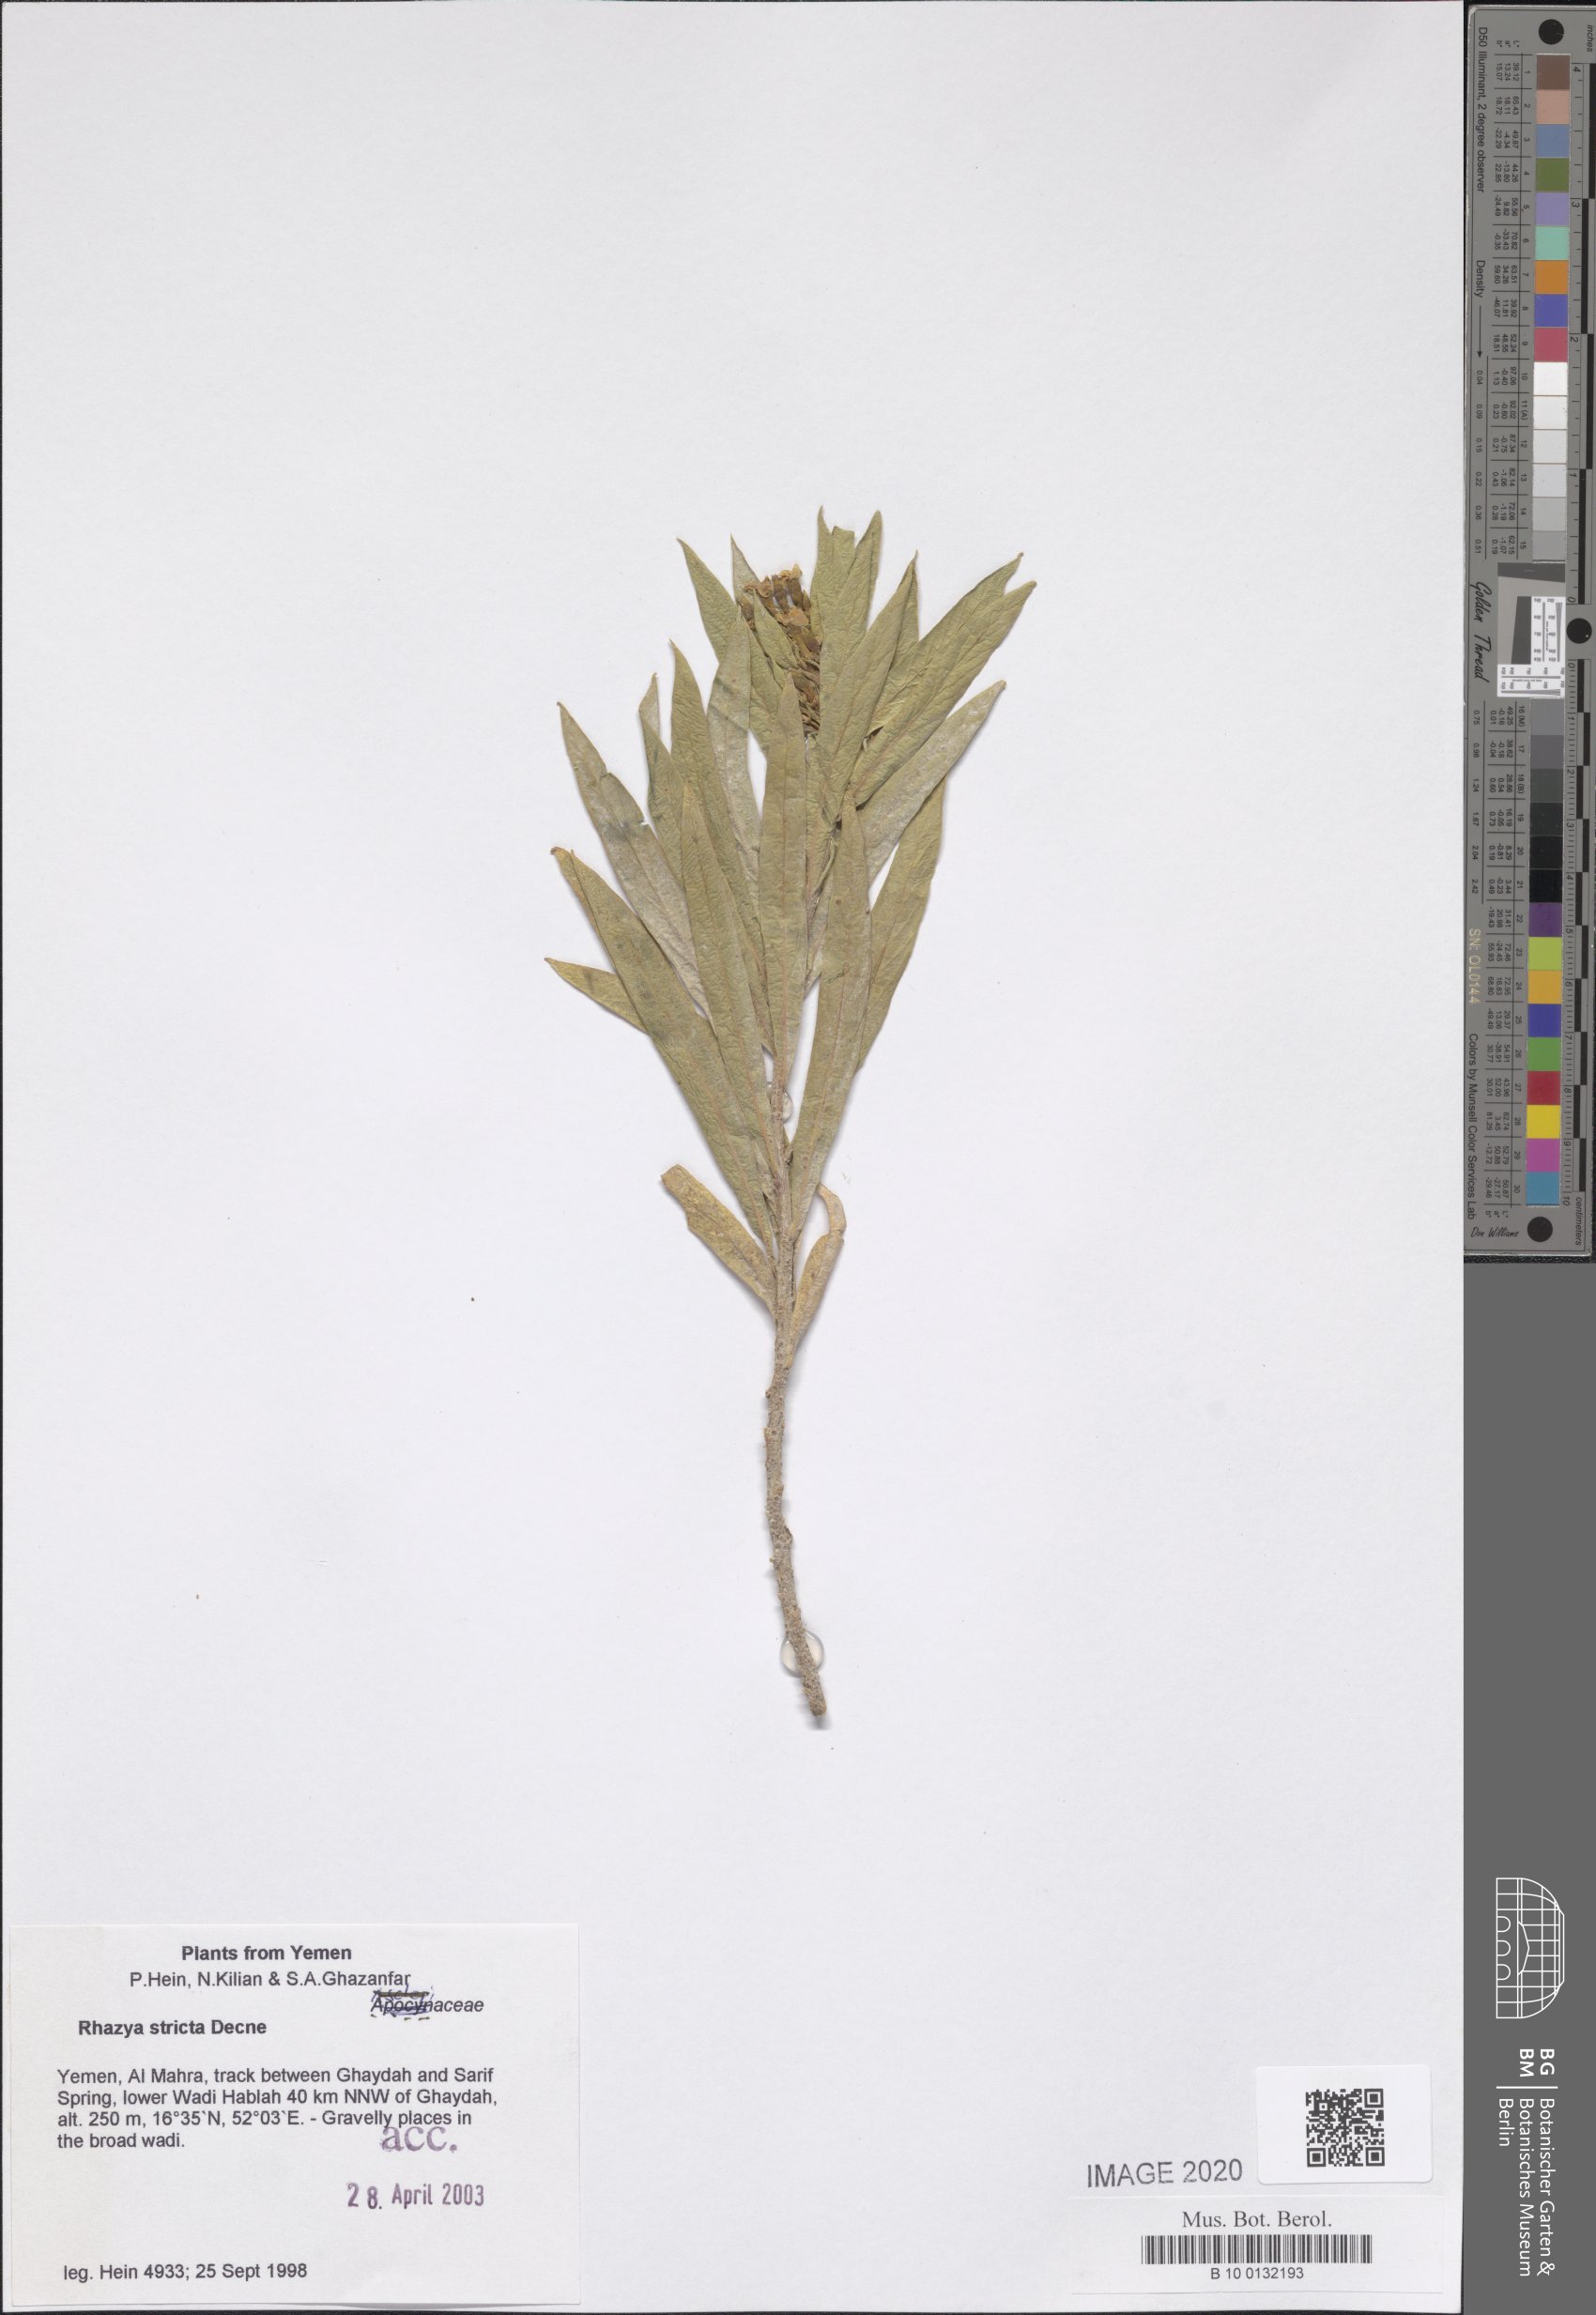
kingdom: Plantae
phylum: Tracheophyta
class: Magnoliopsida
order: Gentianales
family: Apocynaceae
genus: Rhazya
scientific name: Rhazya stricta
